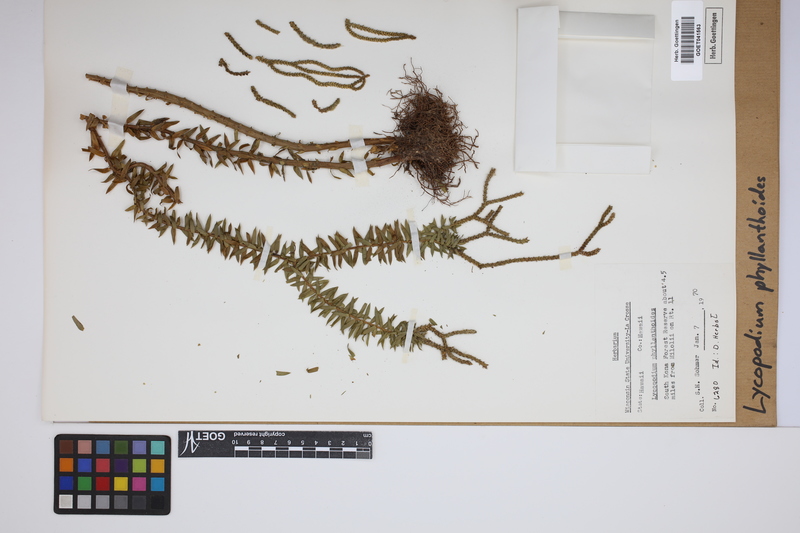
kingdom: Plantae
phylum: Tracheophyta
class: Lycopodiopsida
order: Lycopodiales
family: Lycopodiaceae
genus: Phlegmariurus
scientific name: Phlegmariurus phyllanthus
